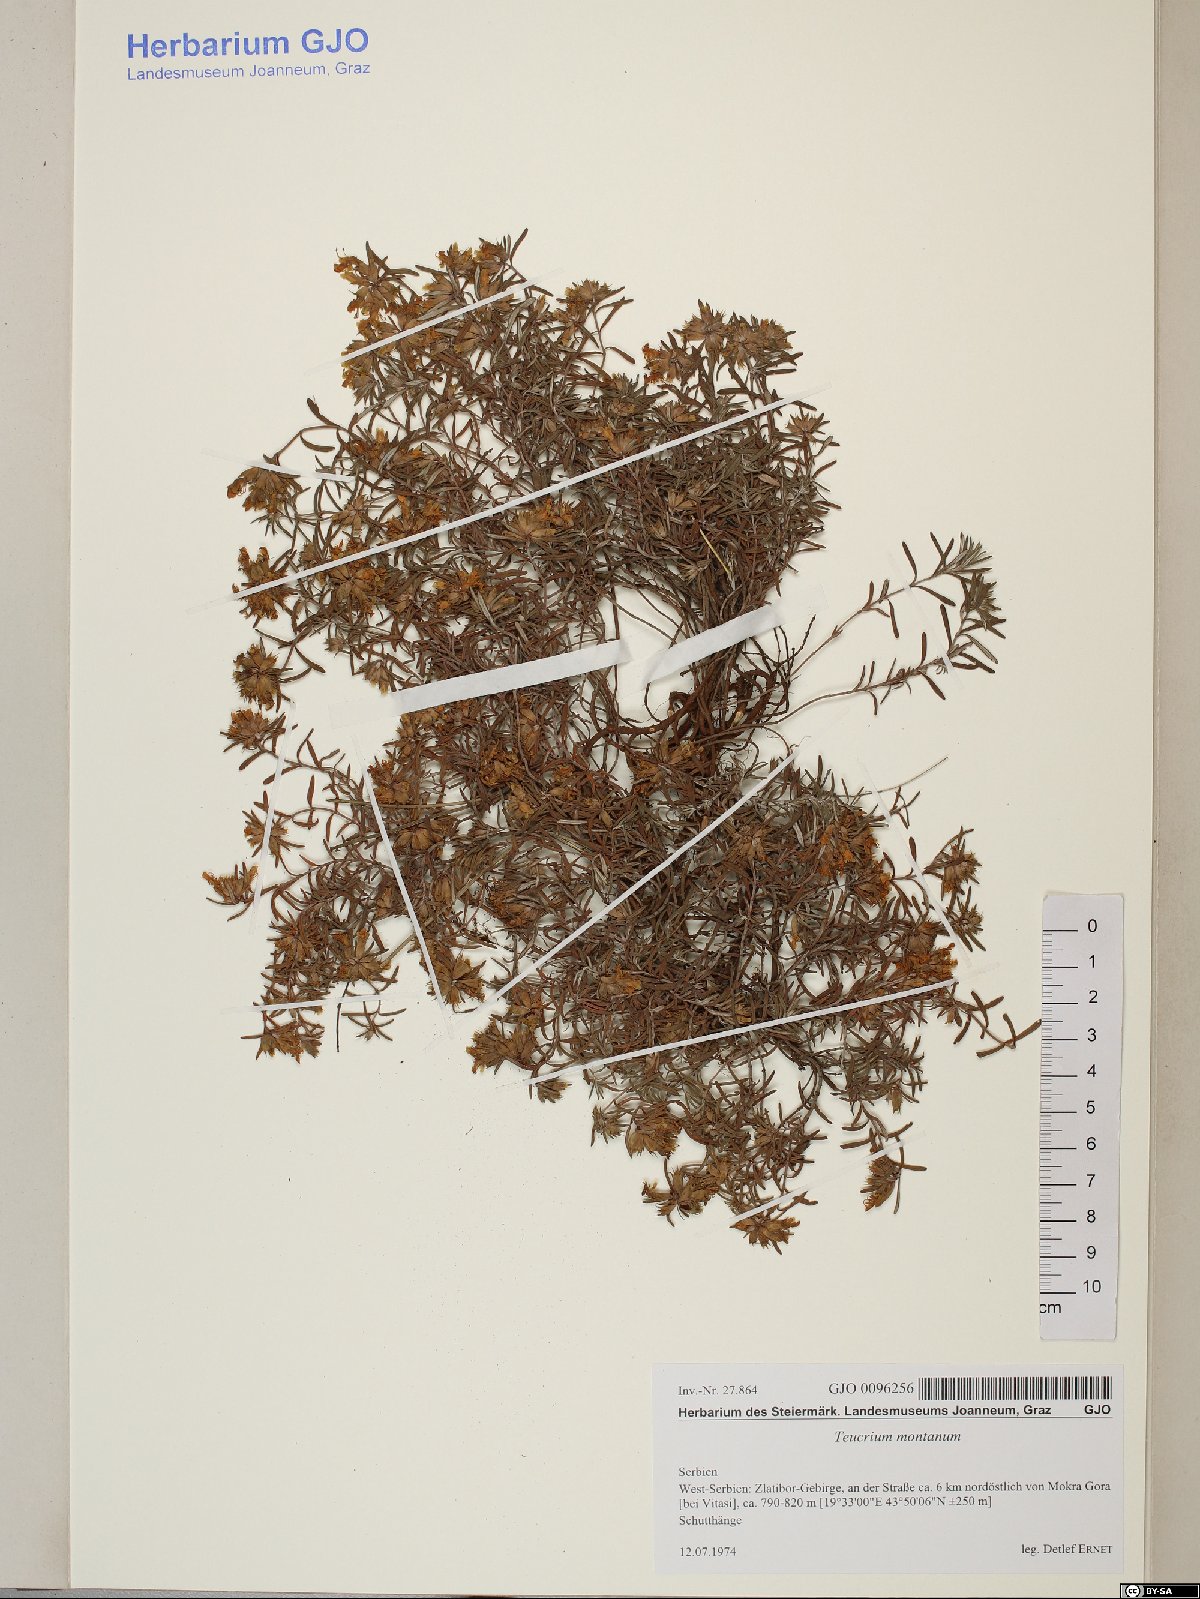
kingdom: Plantae
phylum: Tracheophyta
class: Magnoliopsida
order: Lamiales
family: Lamiaceae
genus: Teucrium
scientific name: Teucrium montanum
